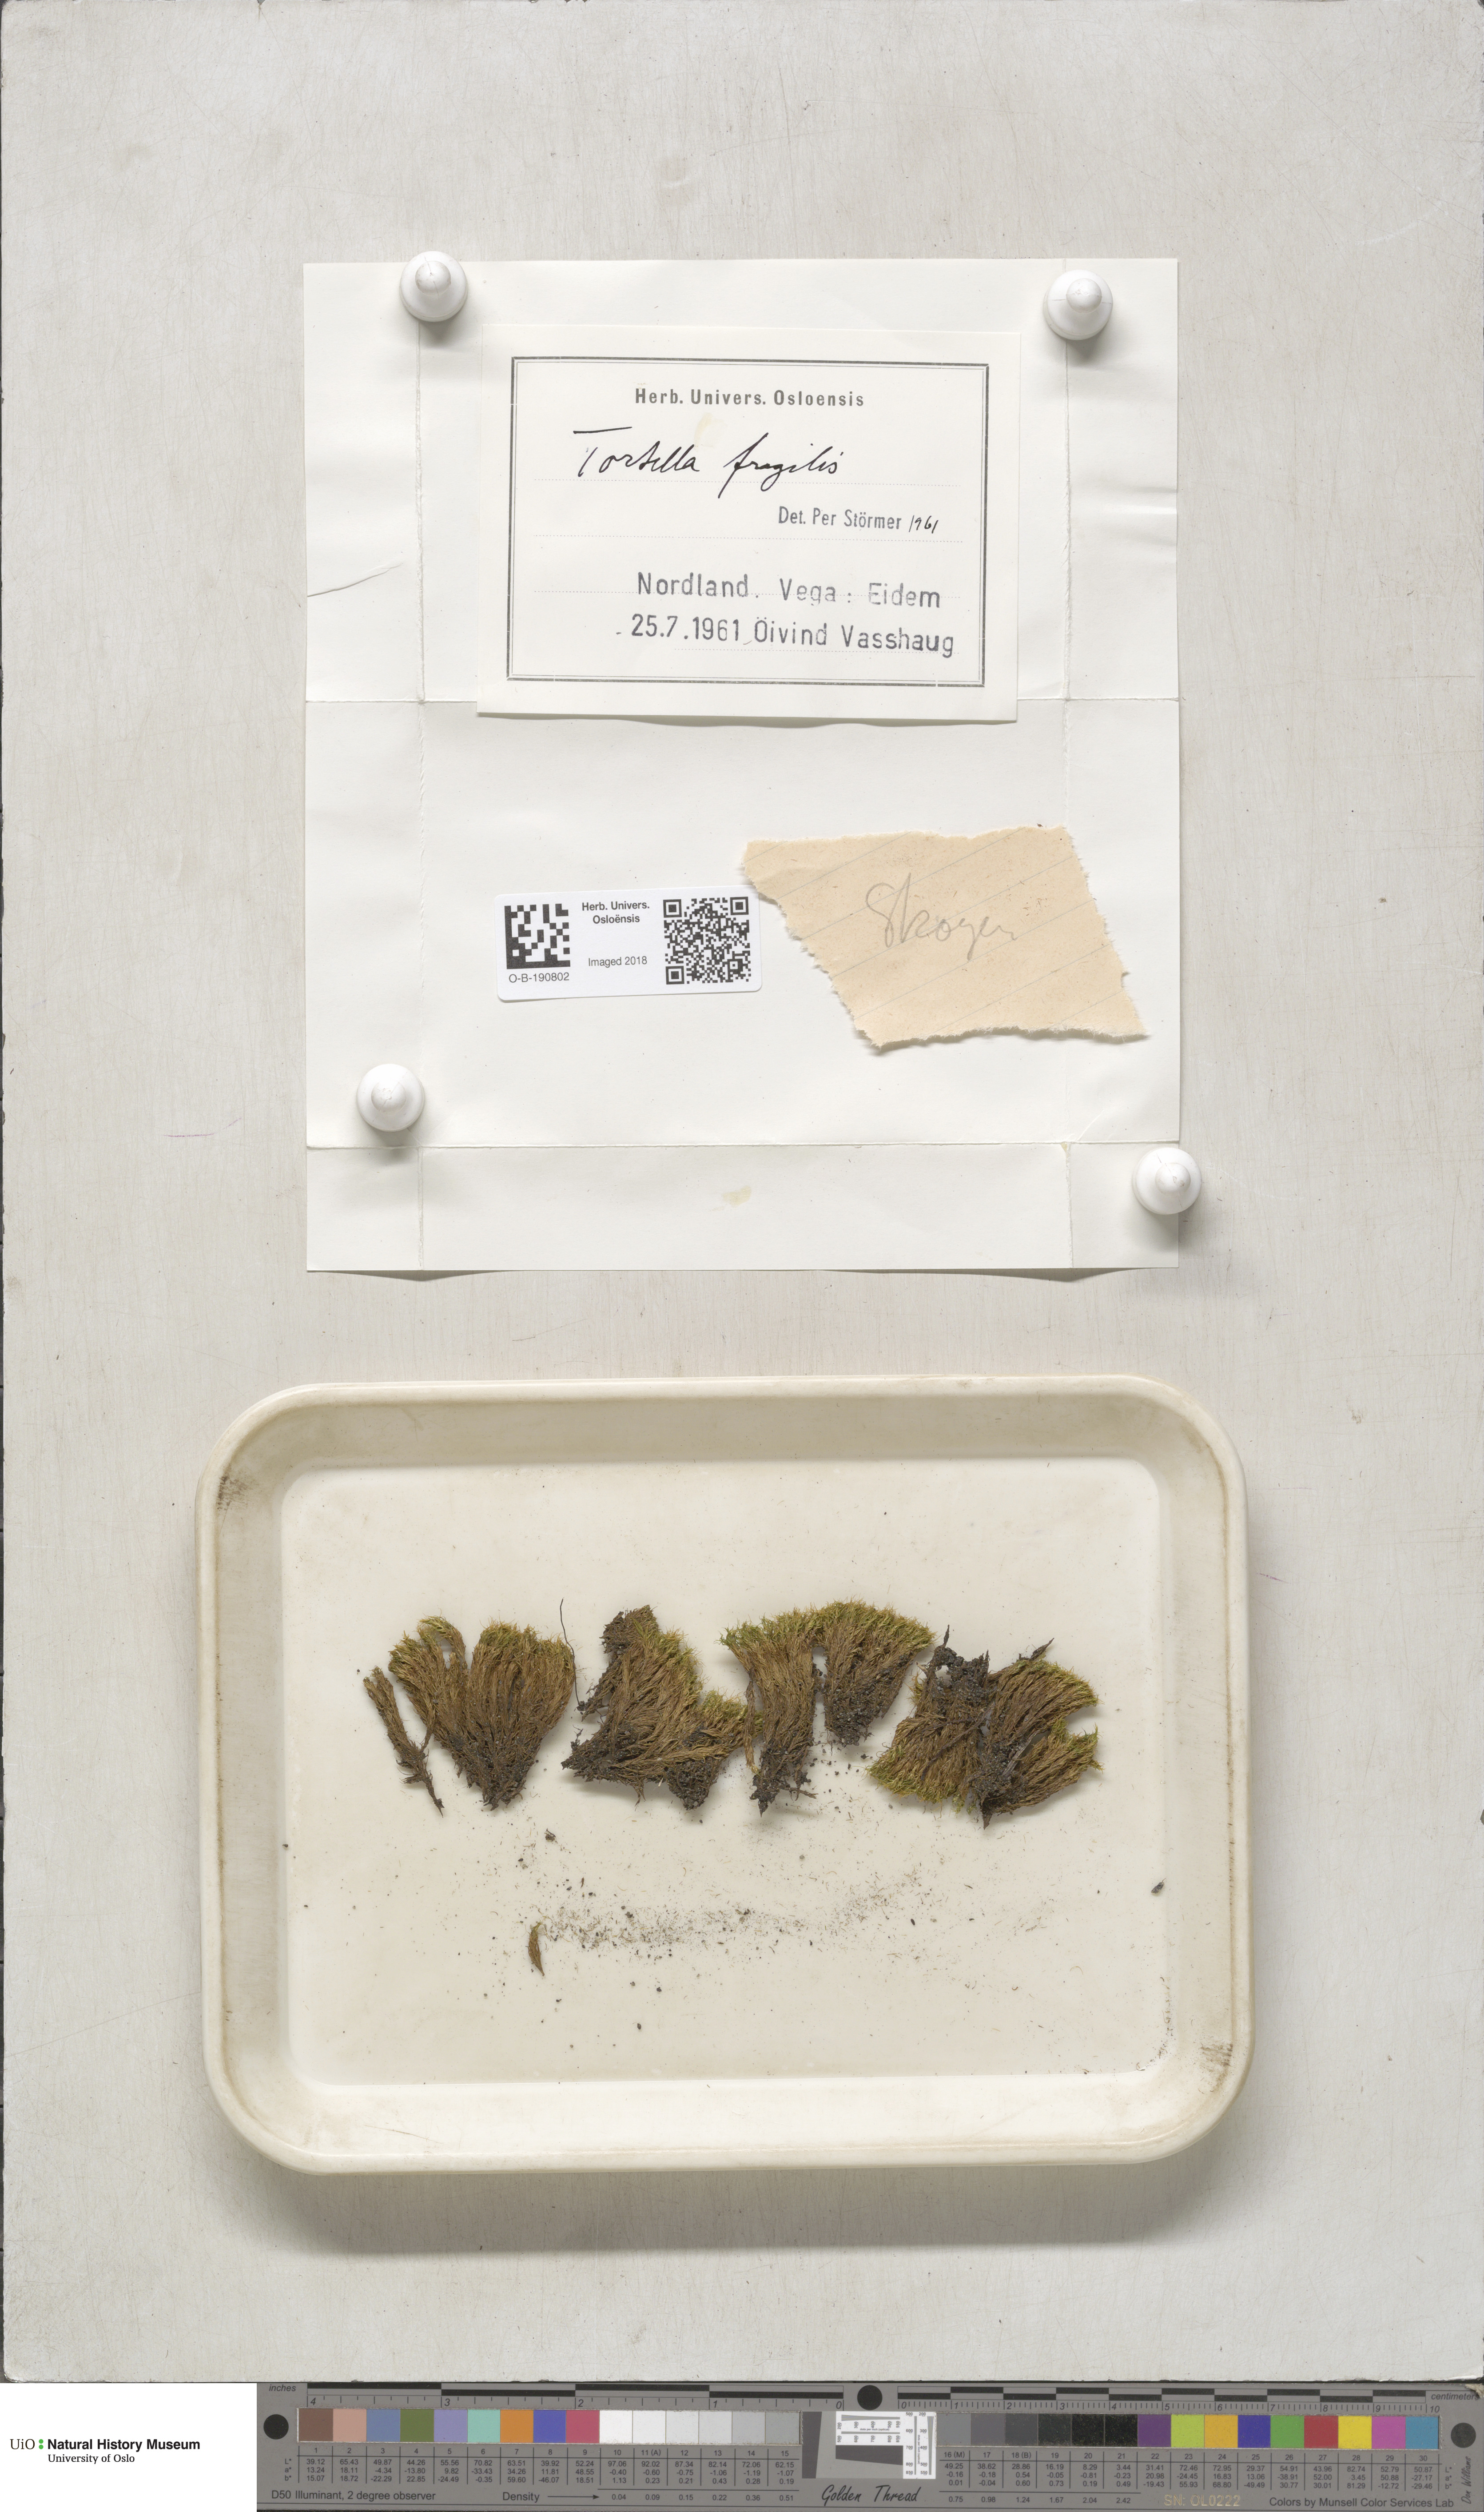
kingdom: Plantae
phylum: Bryophyta
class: Bryopsida
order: Pottiales
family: Pottiaceae
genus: Tortella
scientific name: Tortella fragilis
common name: Fragile twisted moss
